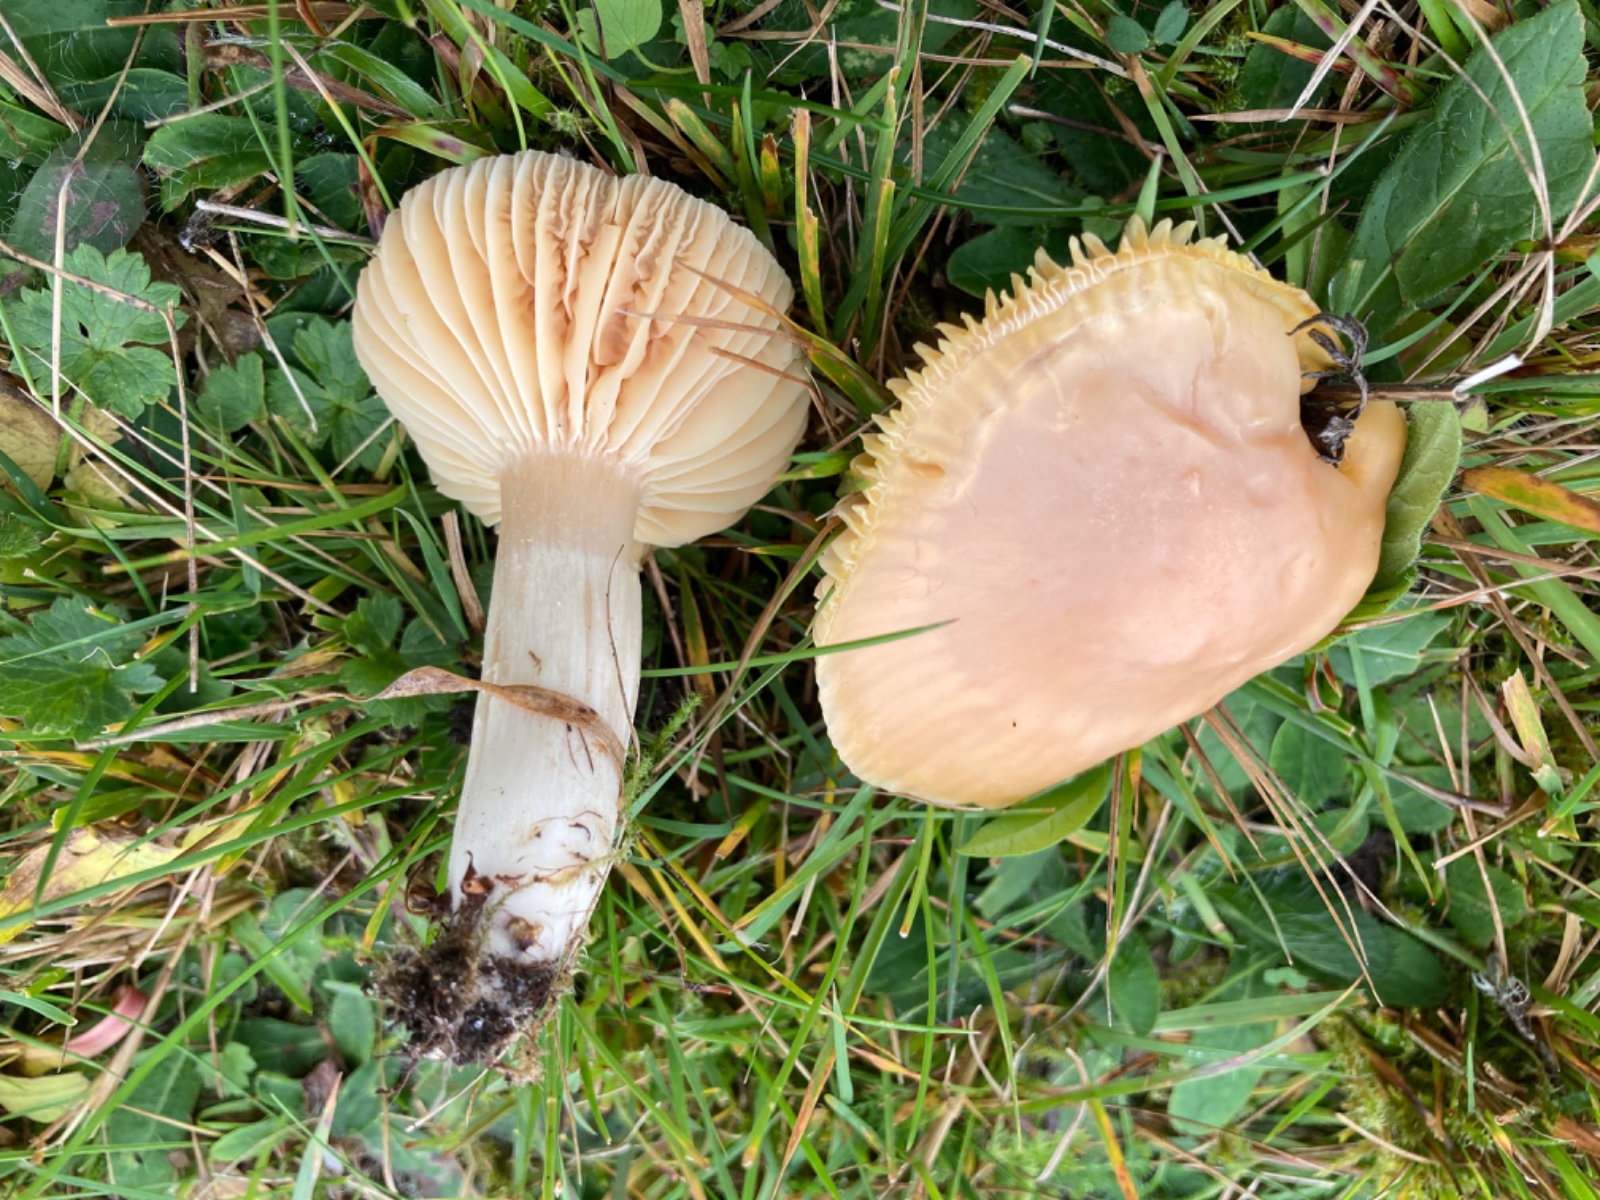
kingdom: Fungi
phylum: Basidiomycota
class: Agaricomycetes
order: Agaricales
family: Hygrophoraceae
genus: Cuphophyllus
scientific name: Cuphophyllus pratensis
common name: eng-vokshat
